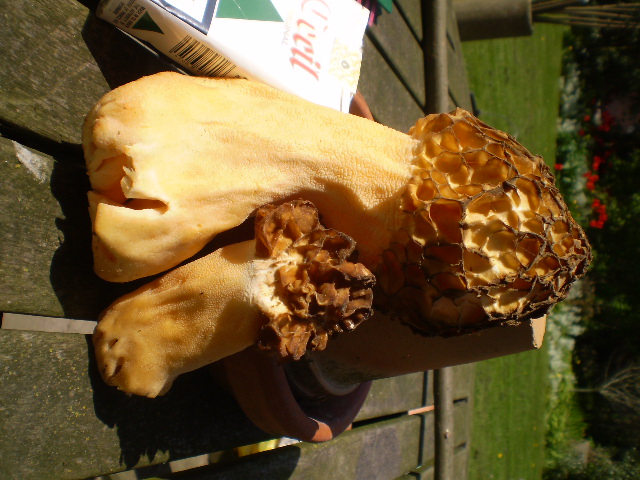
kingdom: Fungi
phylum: Ascomycota
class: Pezizomycetes
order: Pezizales
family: Morchellaceae
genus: Morchella
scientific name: Morchella esculenta
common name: spiselig morkel
